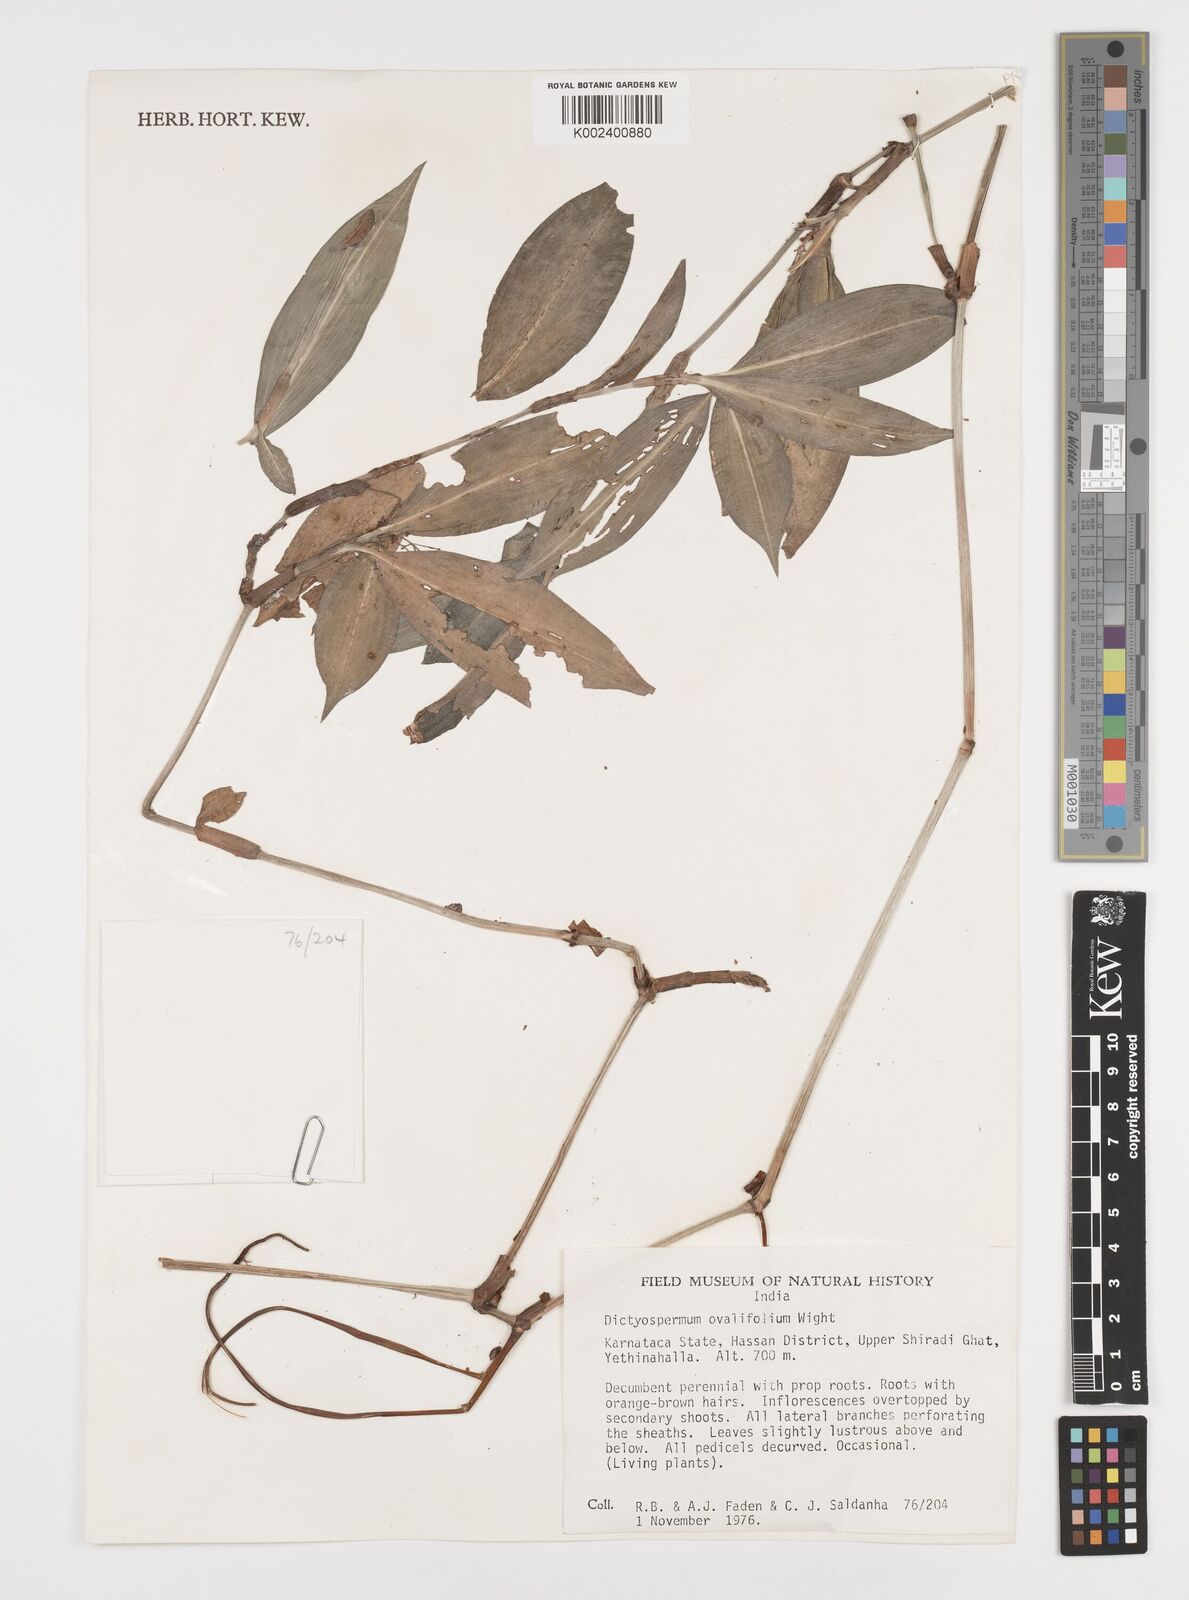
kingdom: Plantae
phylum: Tracheophyta
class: Liliopsida
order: Commelinales
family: Commelinaceae
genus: Dictyospermum
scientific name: Dictyospermum ovalifolium
